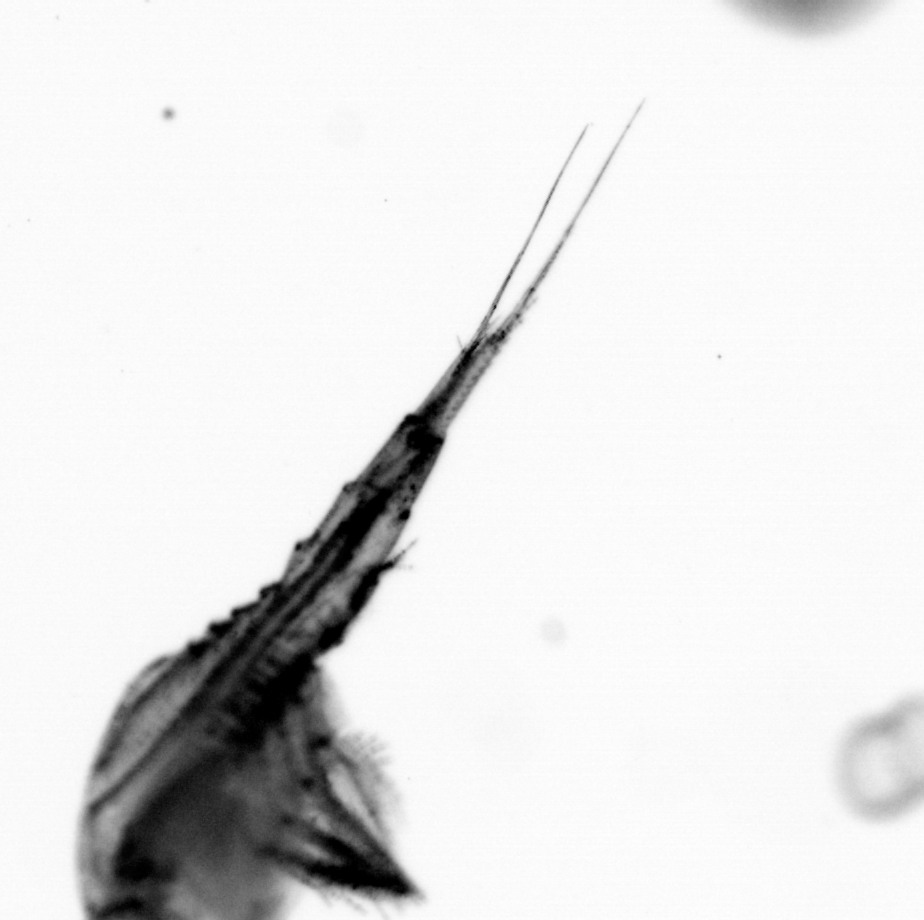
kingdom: Animalia
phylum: Arthropoda
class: Copepoda
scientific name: Copepoda
